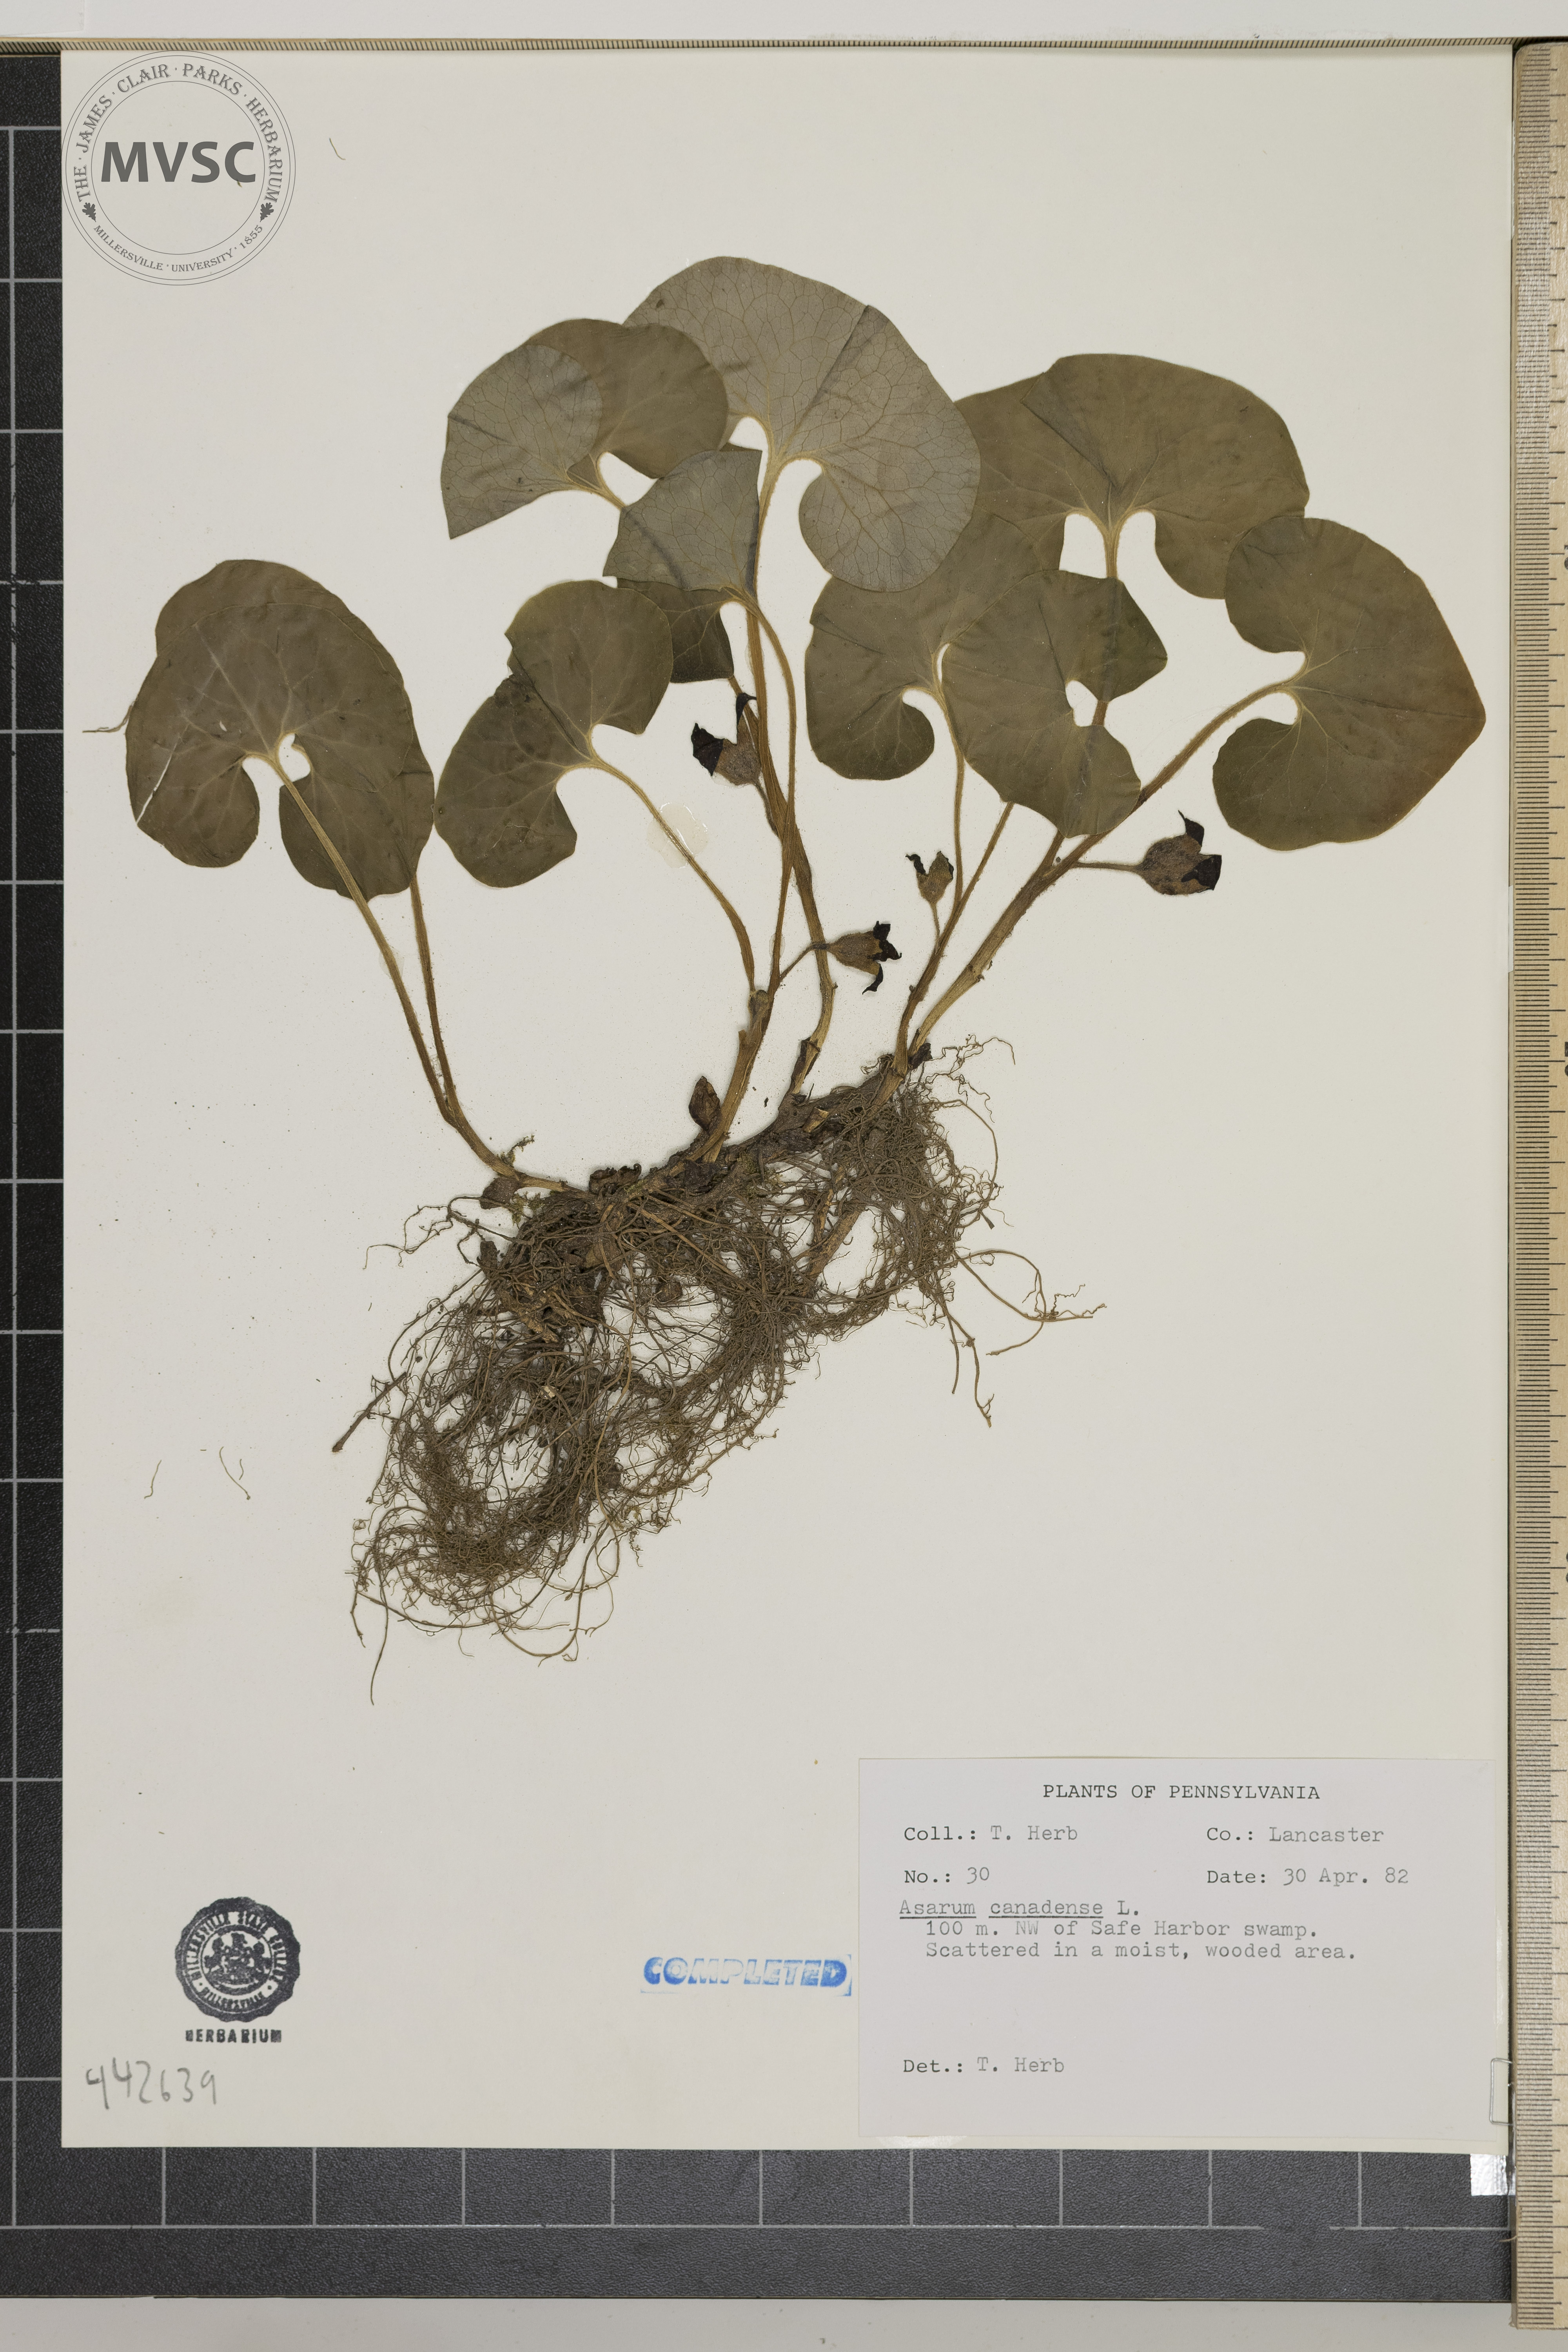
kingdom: Plantae
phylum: Tracheophyta
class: Magnoliopsida
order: Piperales
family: Aristolochiaceae
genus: Asarum
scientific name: Asarum canadense
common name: Wild ginger
